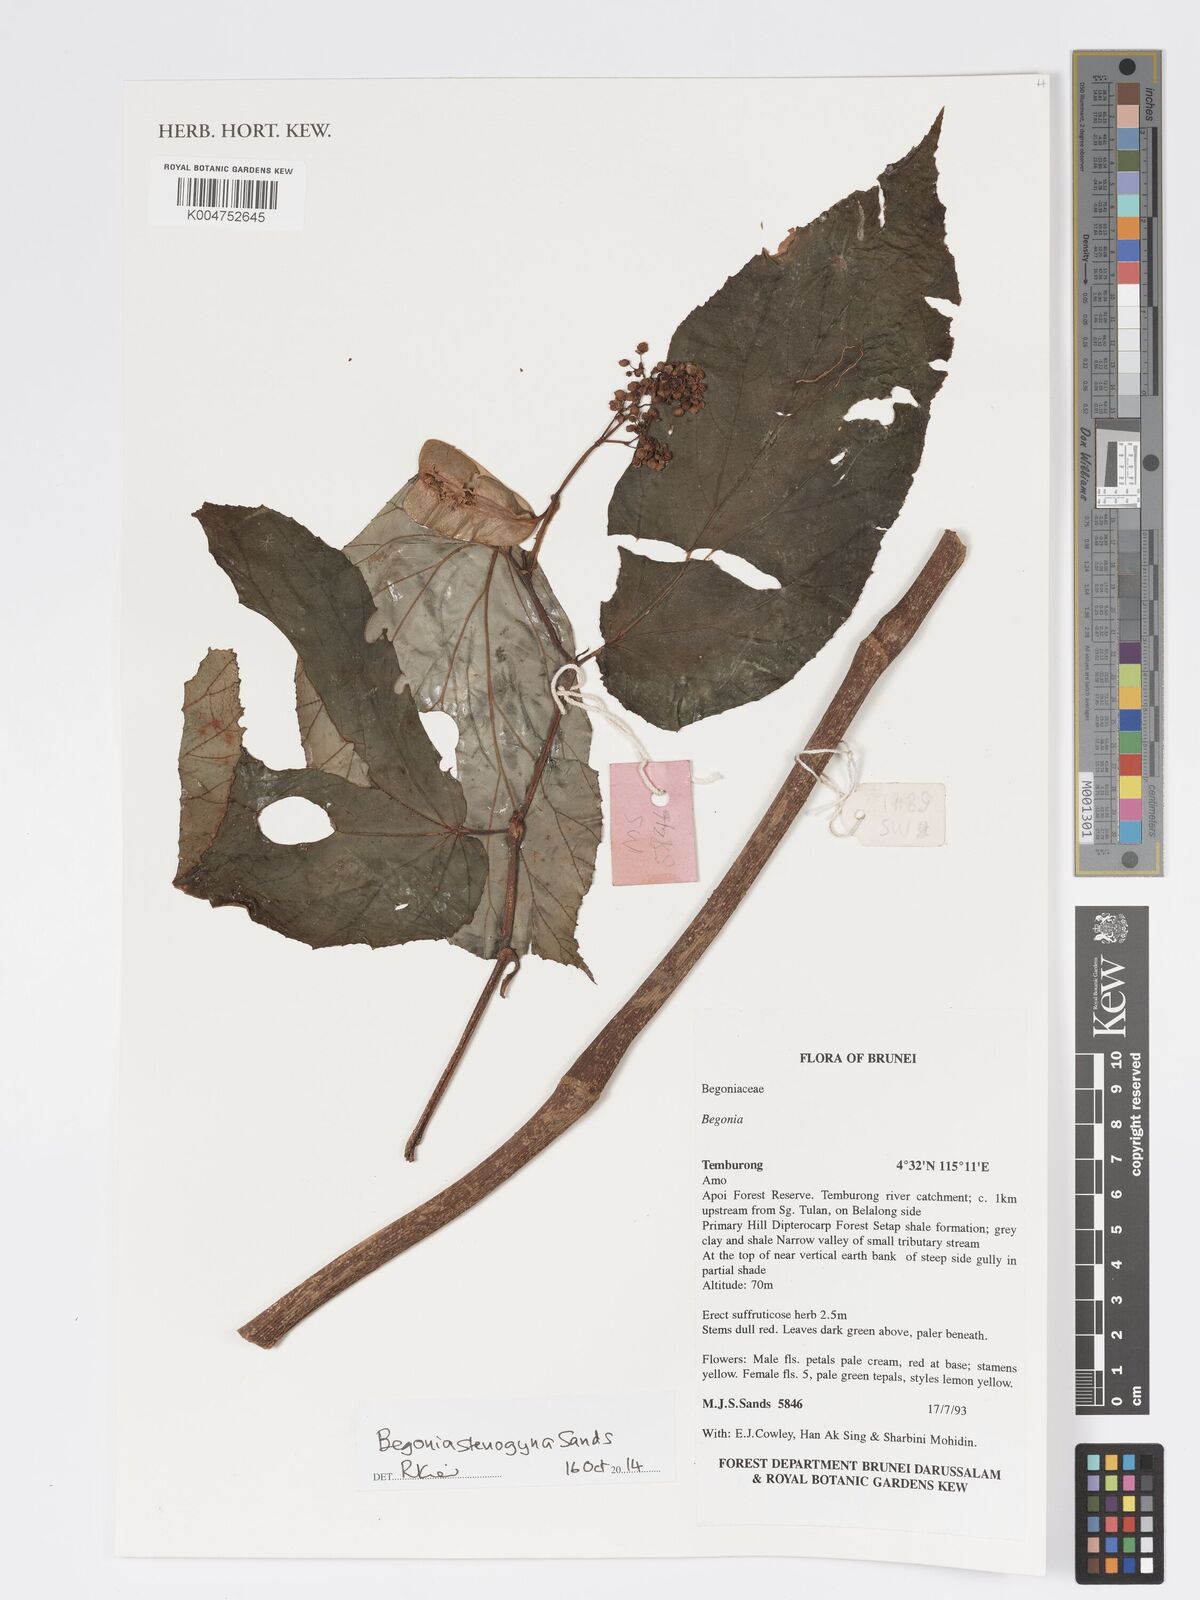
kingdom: Plantae
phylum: Tracheophyta
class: Magnoliopsida
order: Cucurbitales
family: Begoniaceae
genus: Begonia
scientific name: Begonia stenogyna
